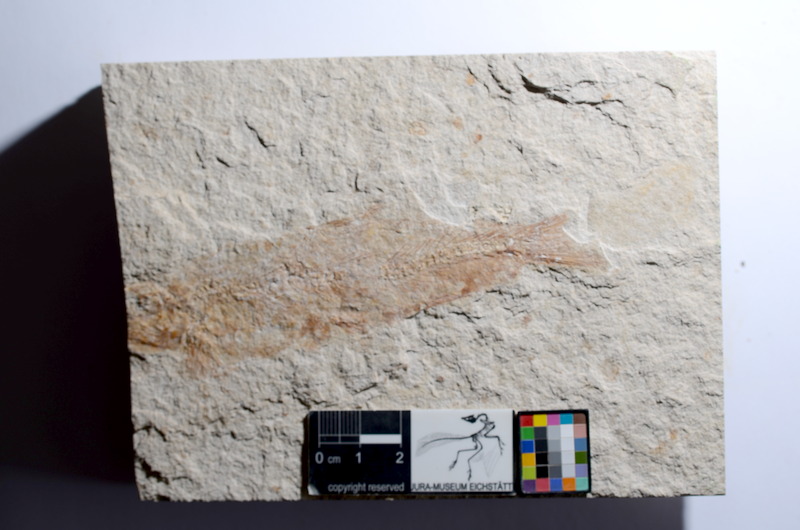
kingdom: Animalia
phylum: Chordata
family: Ascalaboidae
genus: Tharsis
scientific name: Tharsis dubius
